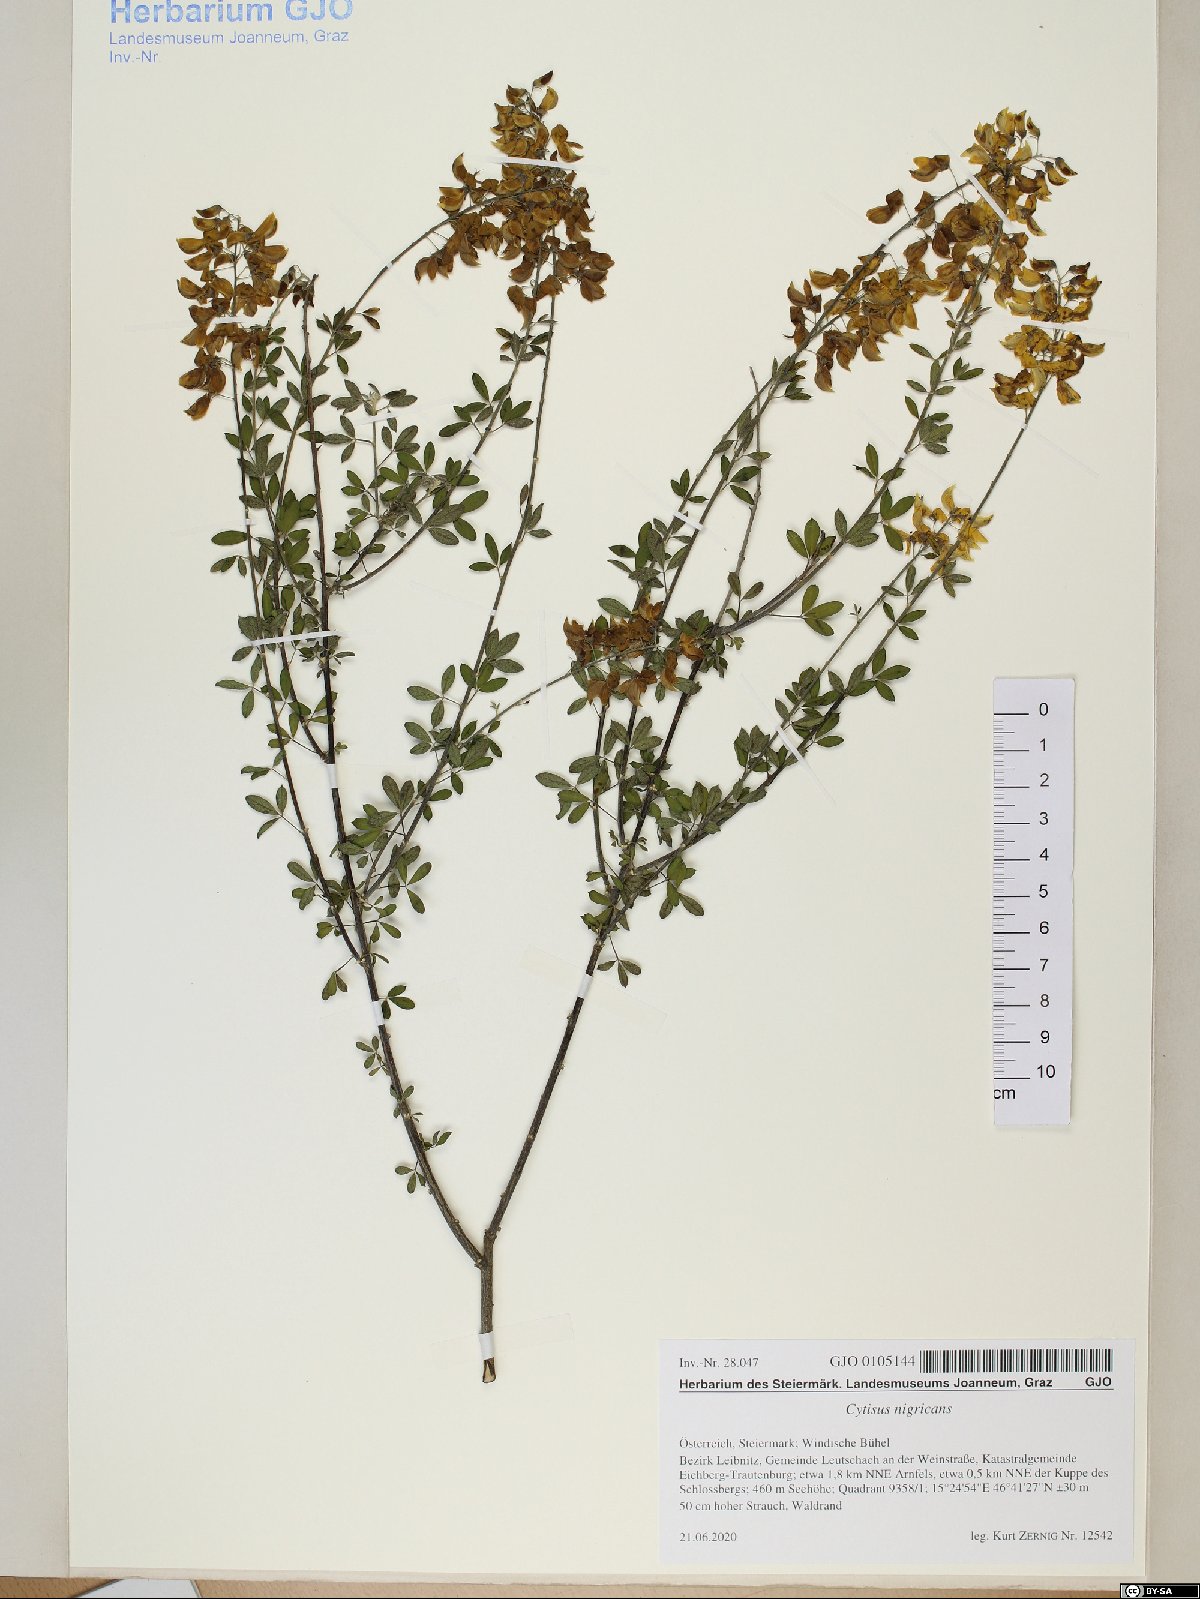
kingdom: Plantae
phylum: Tracheophyta
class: Magnoliopsida
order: Fabales
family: Fabaceae
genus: Cytisus
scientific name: Cytisus nigricans
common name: Black broom
